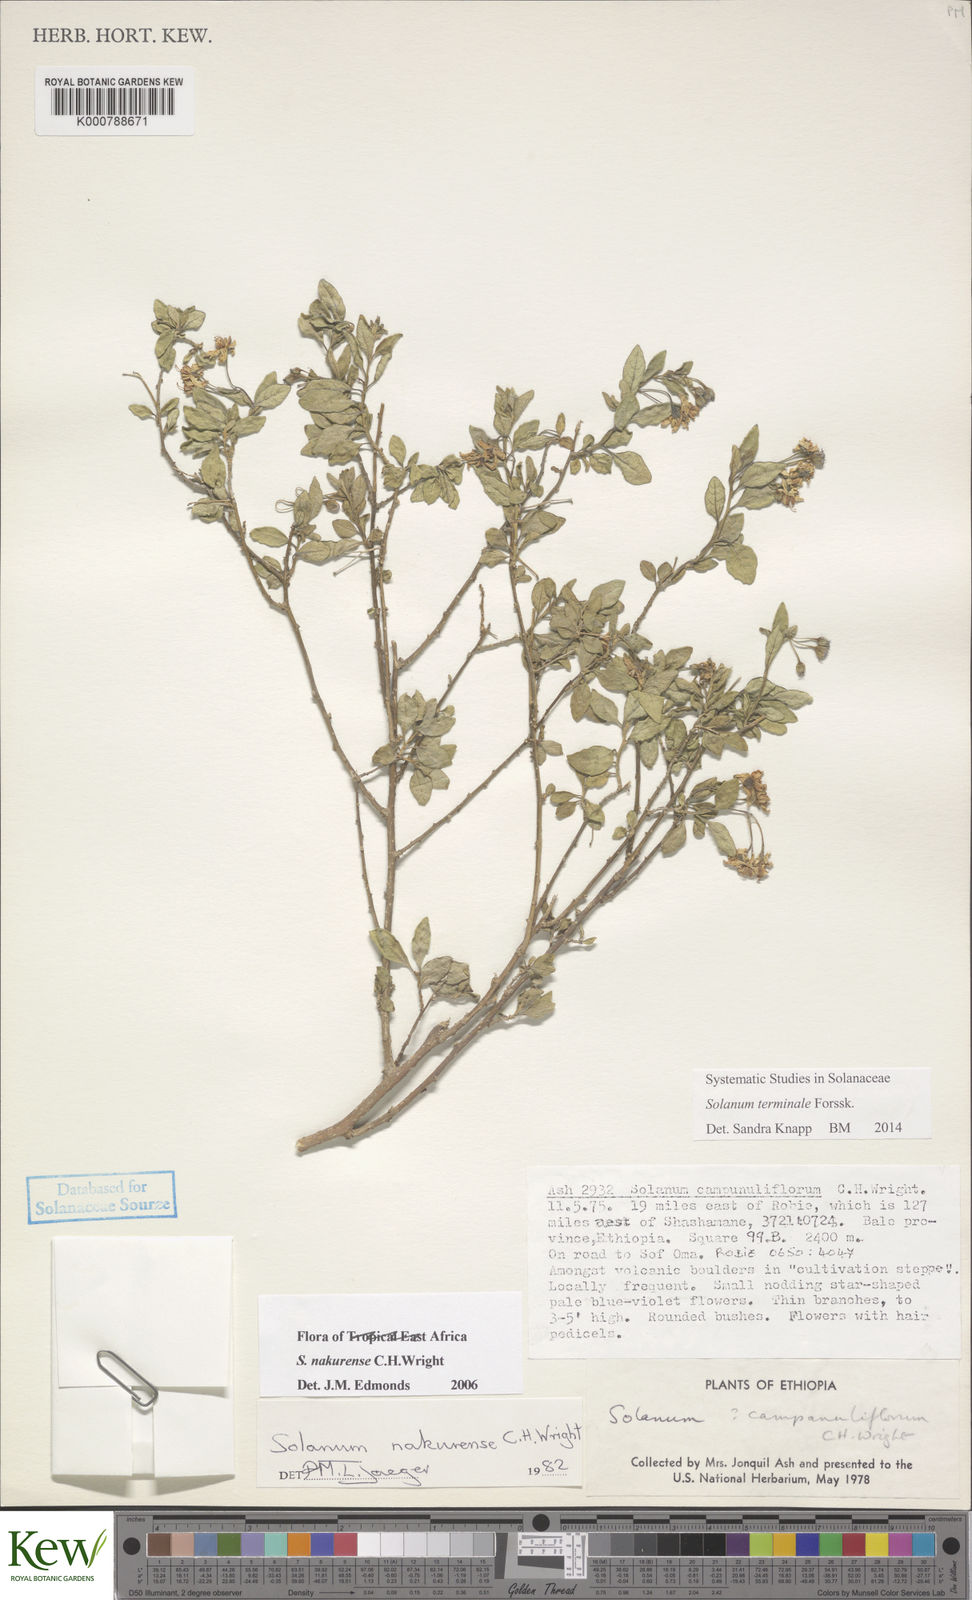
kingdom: Plantae
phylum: Tracheophyta
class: Magnoliopsida
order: Solanales
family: Solanaceae
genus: Solanum
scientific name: Solanum nakurense
